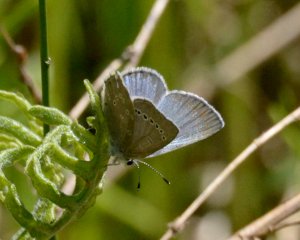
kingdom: Animalia
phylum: Arthropoda
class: Insecta
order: Lepidoptera
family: Lycaenidae
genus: Glaucopsyche
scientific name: Glaucopsyche lygdamus
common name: Silvery Blue
